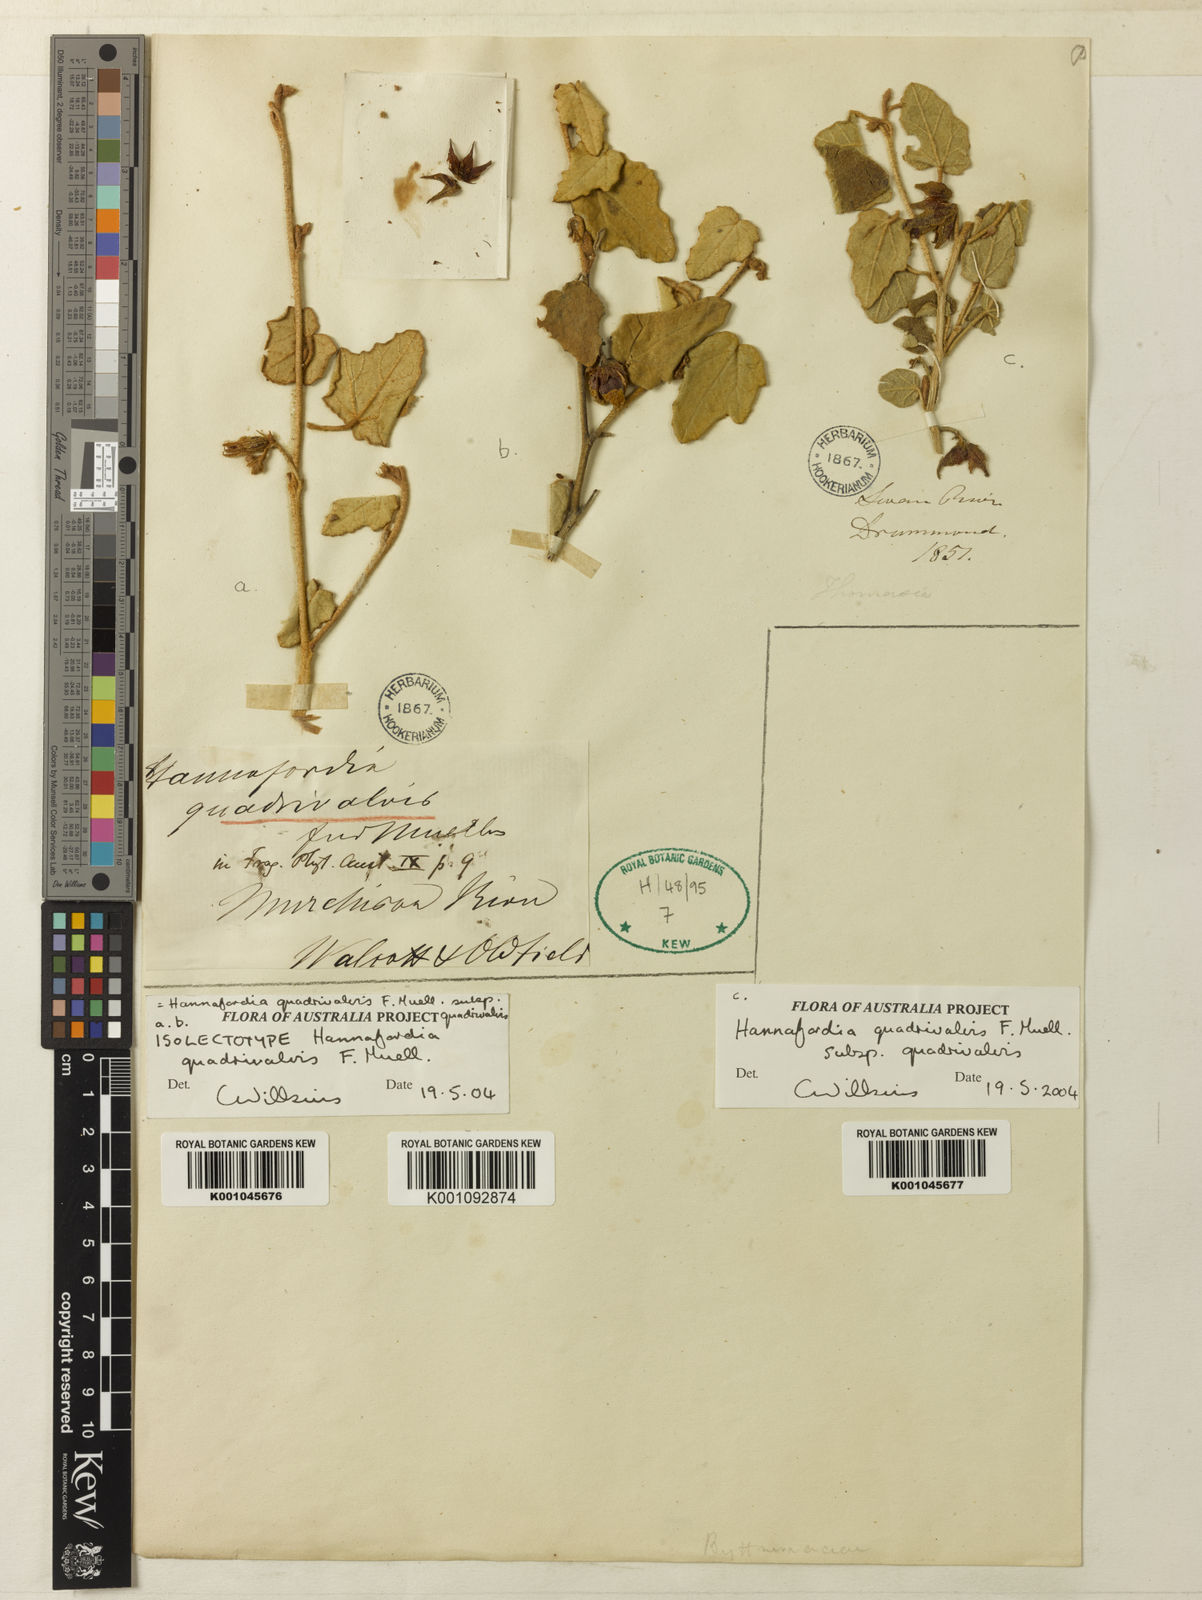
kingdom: Plantae
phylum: Tracheophyta
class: Magnoliopsida
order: Malvales
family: Malvaceae
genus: Hannafordia
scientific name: Hannafordia
